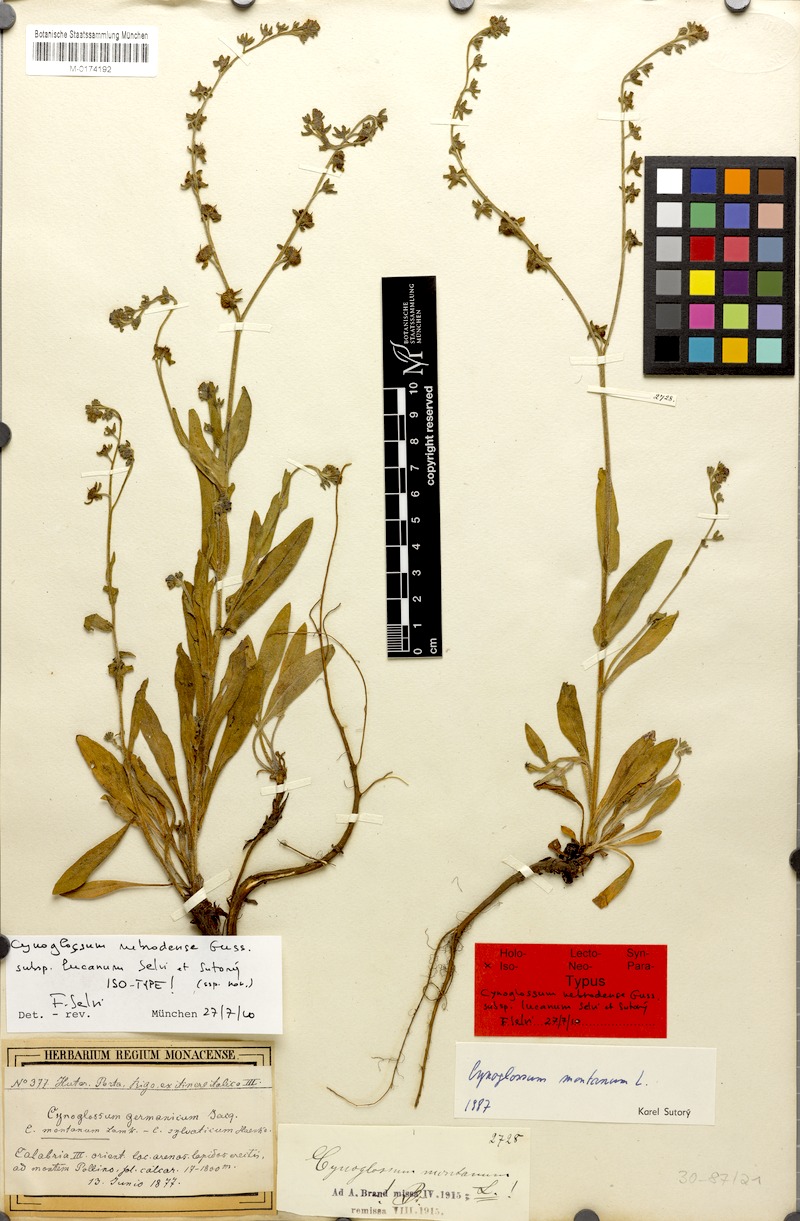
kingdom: Plantae
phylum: Tracheophyta
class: Magnoliopsida
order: Boraginales
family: Boraginaceae
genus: Cynoglossum
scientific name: Cynoglossum nebrodense
